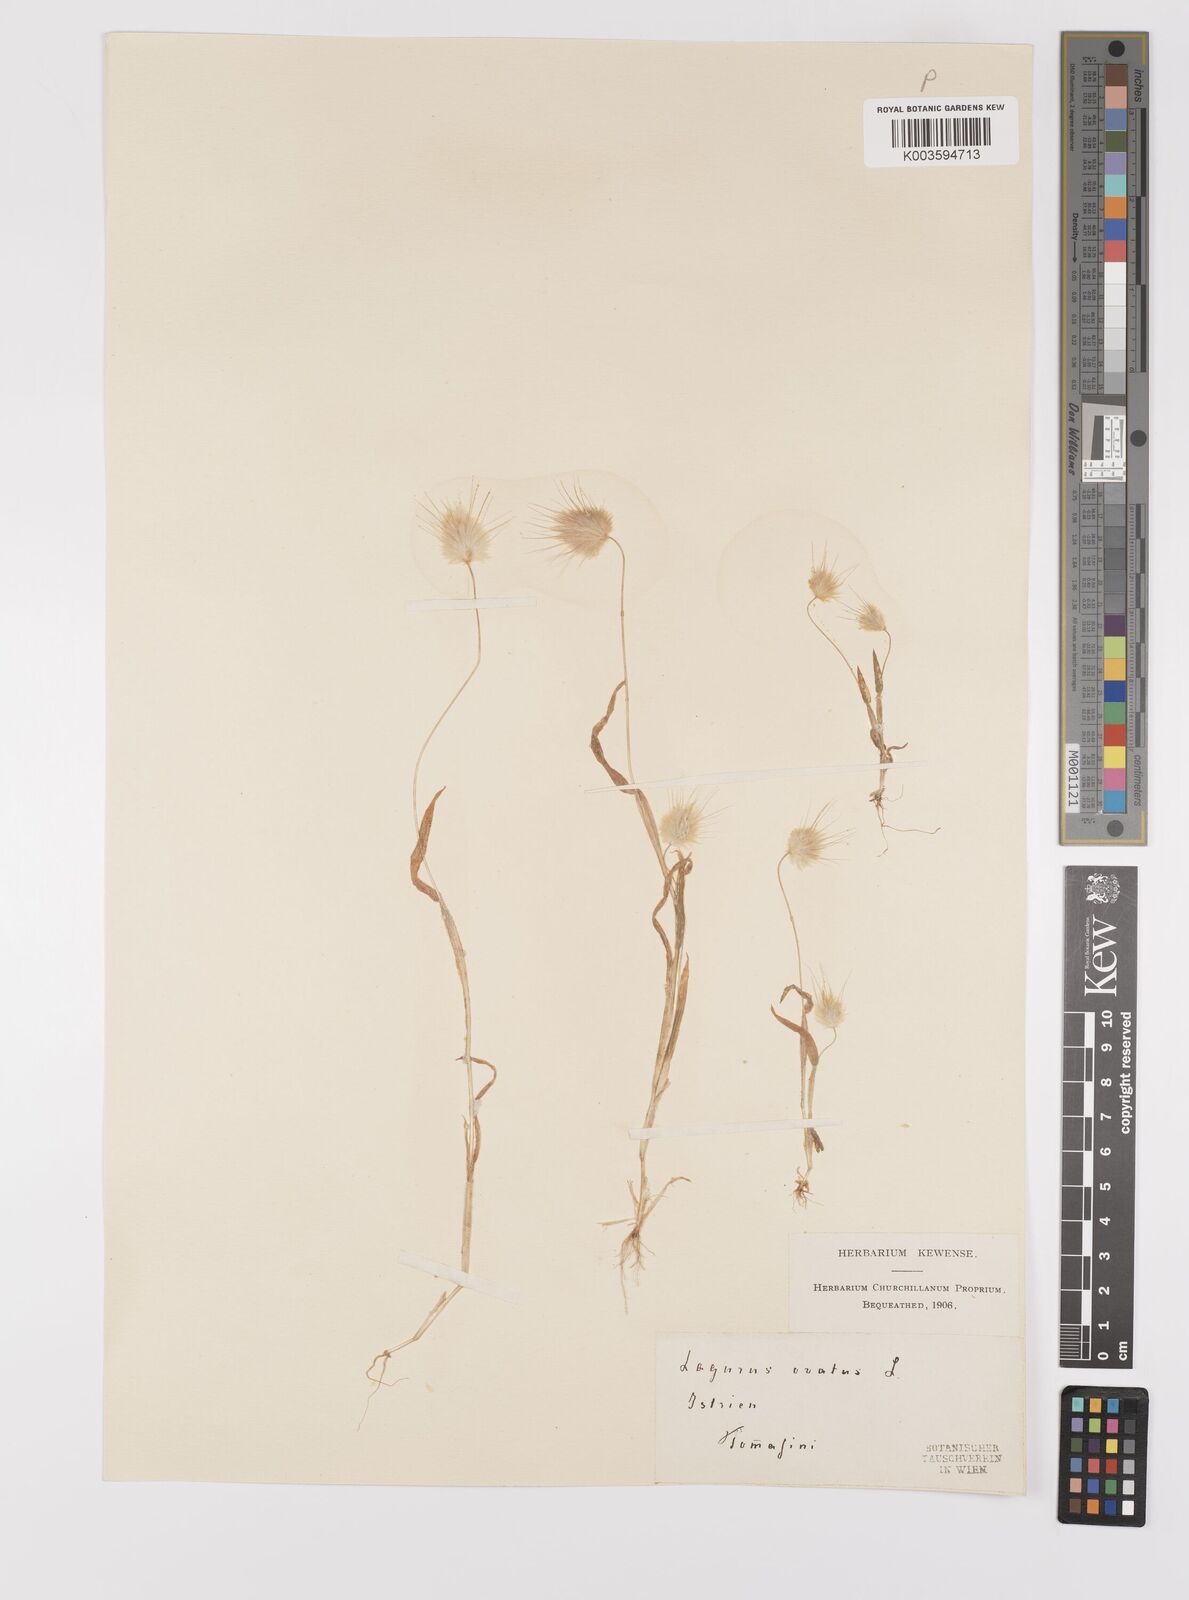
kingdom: Plantae
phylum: Tracheophyta
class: Liliopsida
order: Poales
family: Poaceae
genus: Lagurus
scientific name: Lagurus ovatus
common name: Hare's-tail
